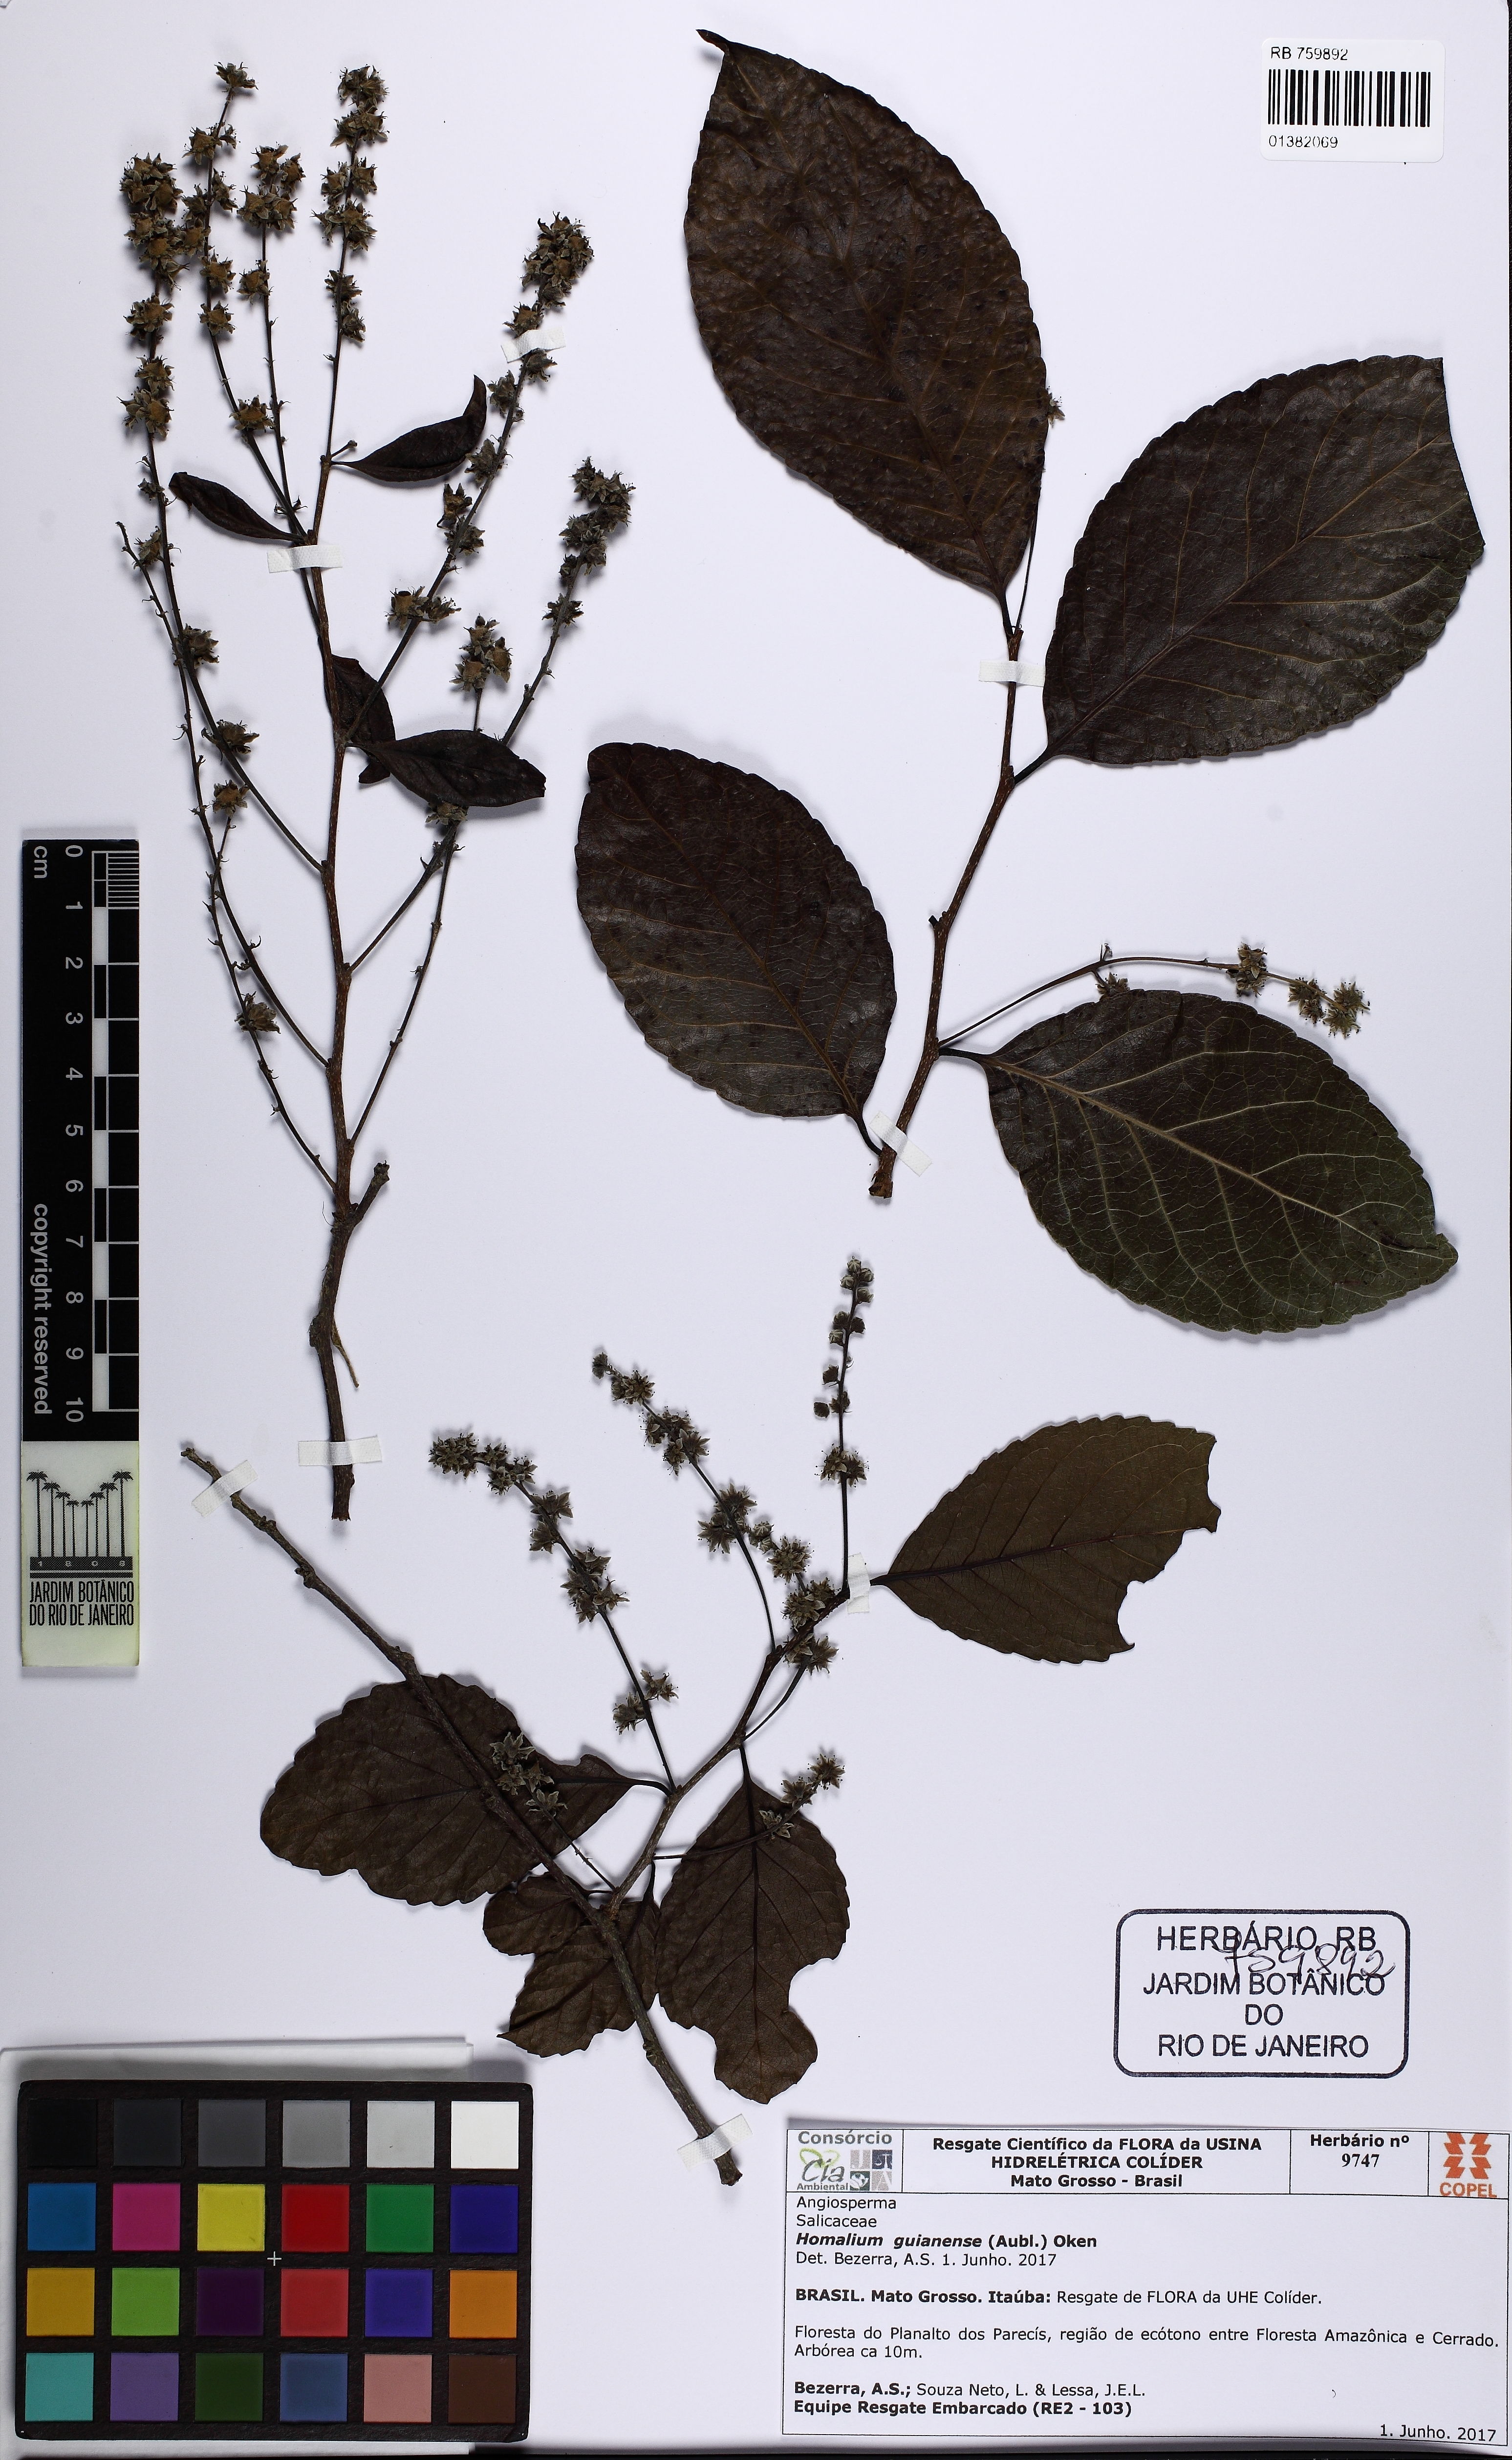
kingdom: Plantae
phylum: Tracheophyta
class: Magnoliopsida
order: Malpighiales
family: Salicaceae
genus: Homalium
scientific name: Homalium guianense
